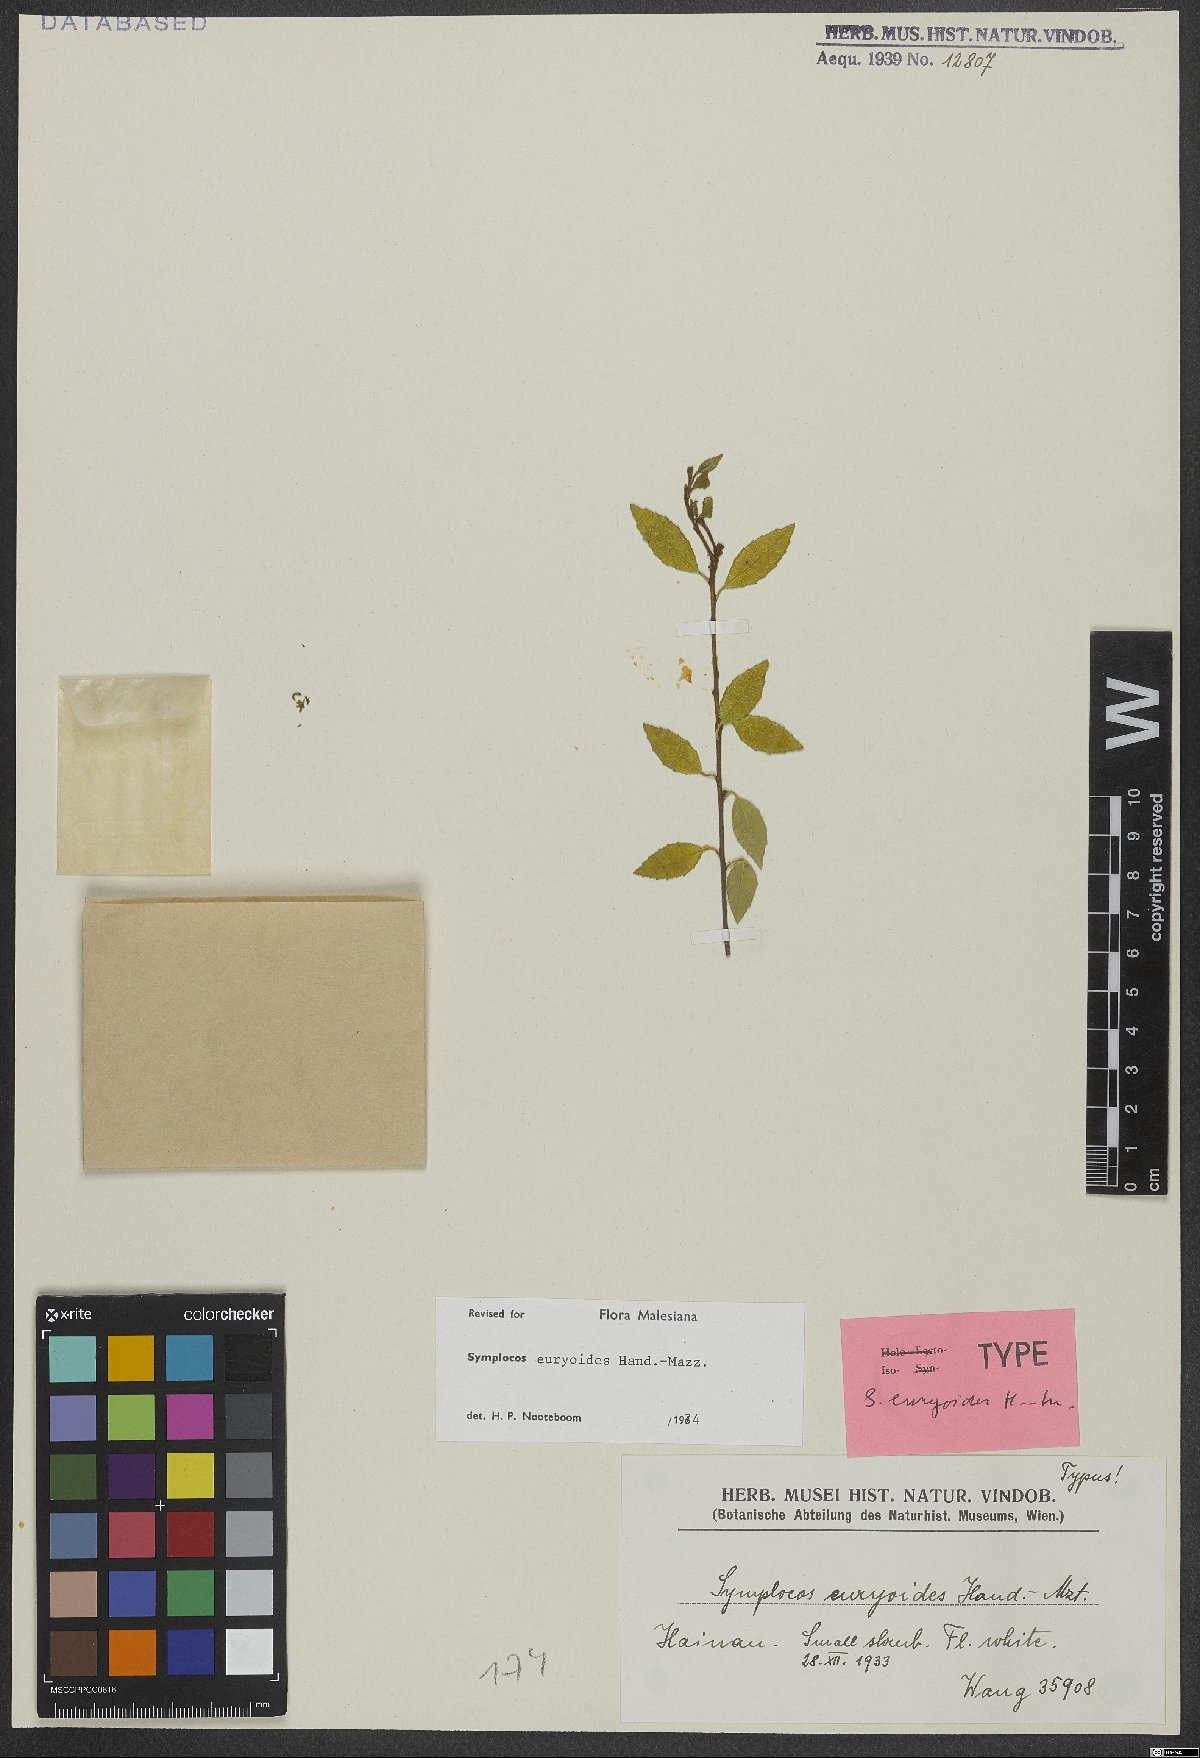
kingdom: Plantae
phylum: Tracheophyta
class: Magnoliopsida
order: Ericales
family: Symplocaceae
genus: Symplocos
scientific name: Symplocos euryoides
